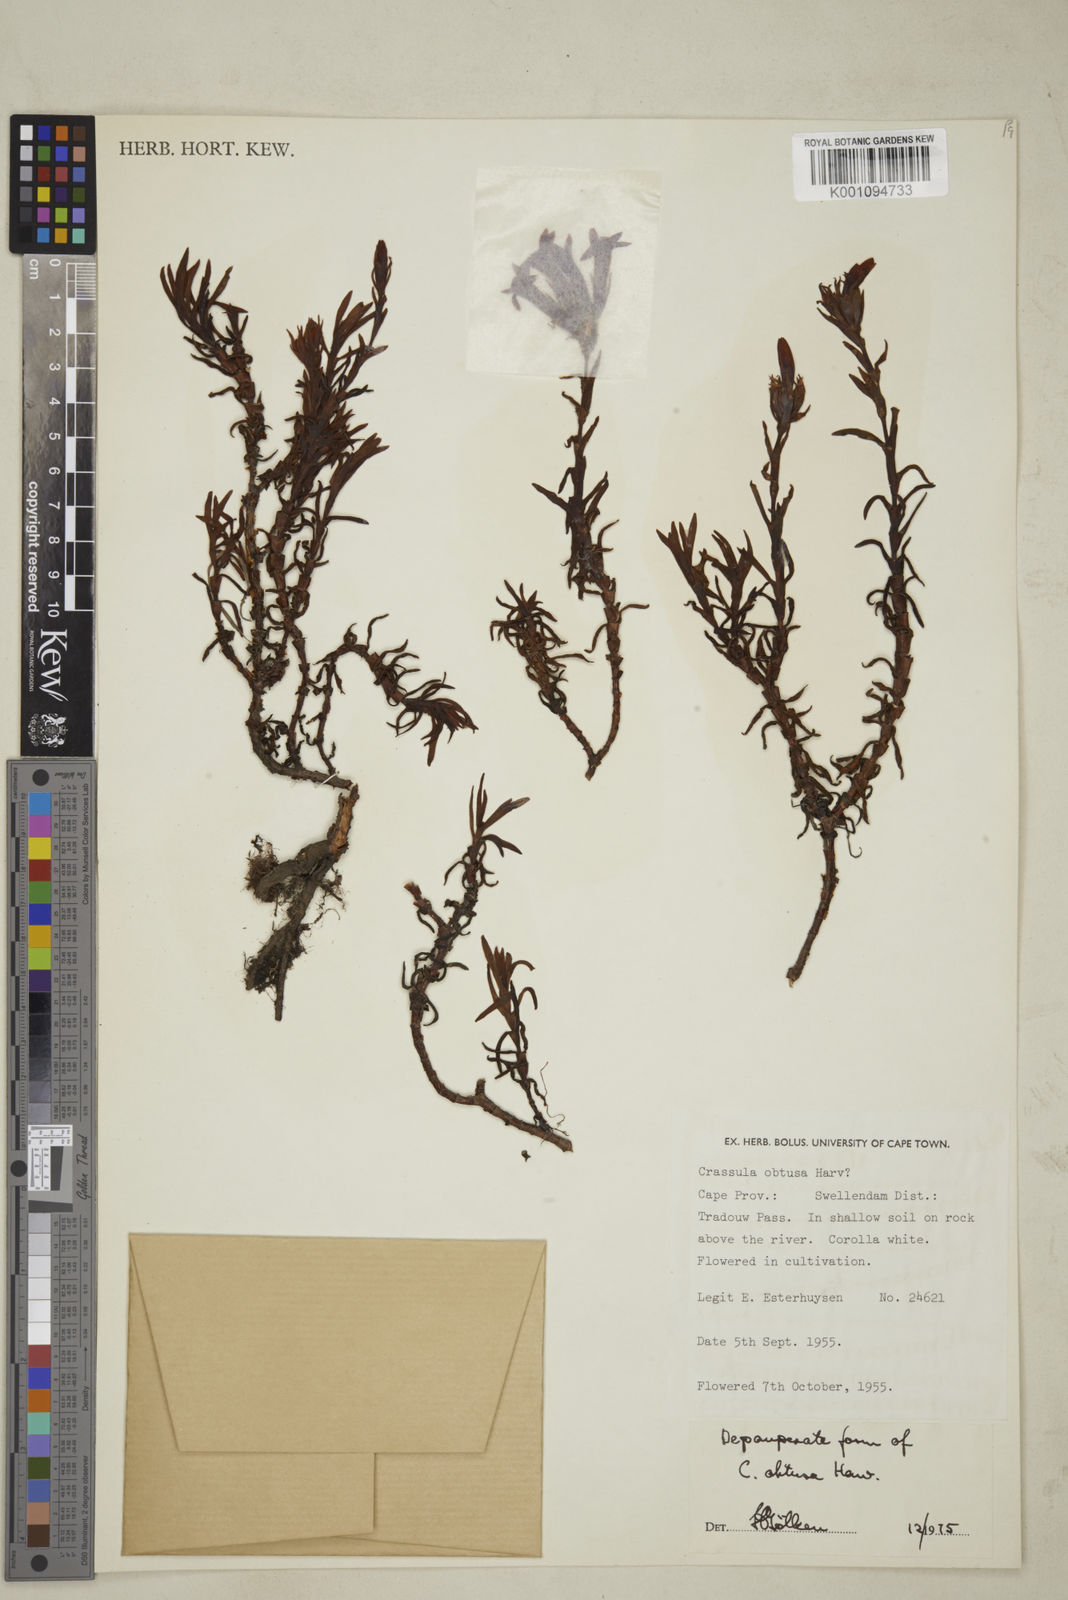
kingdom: Plantae
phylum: Tracheophyta
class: Magnoliopsida
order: Saxifragales
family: Crassulaceae
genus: Crassula
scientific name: Crassula obtusa
